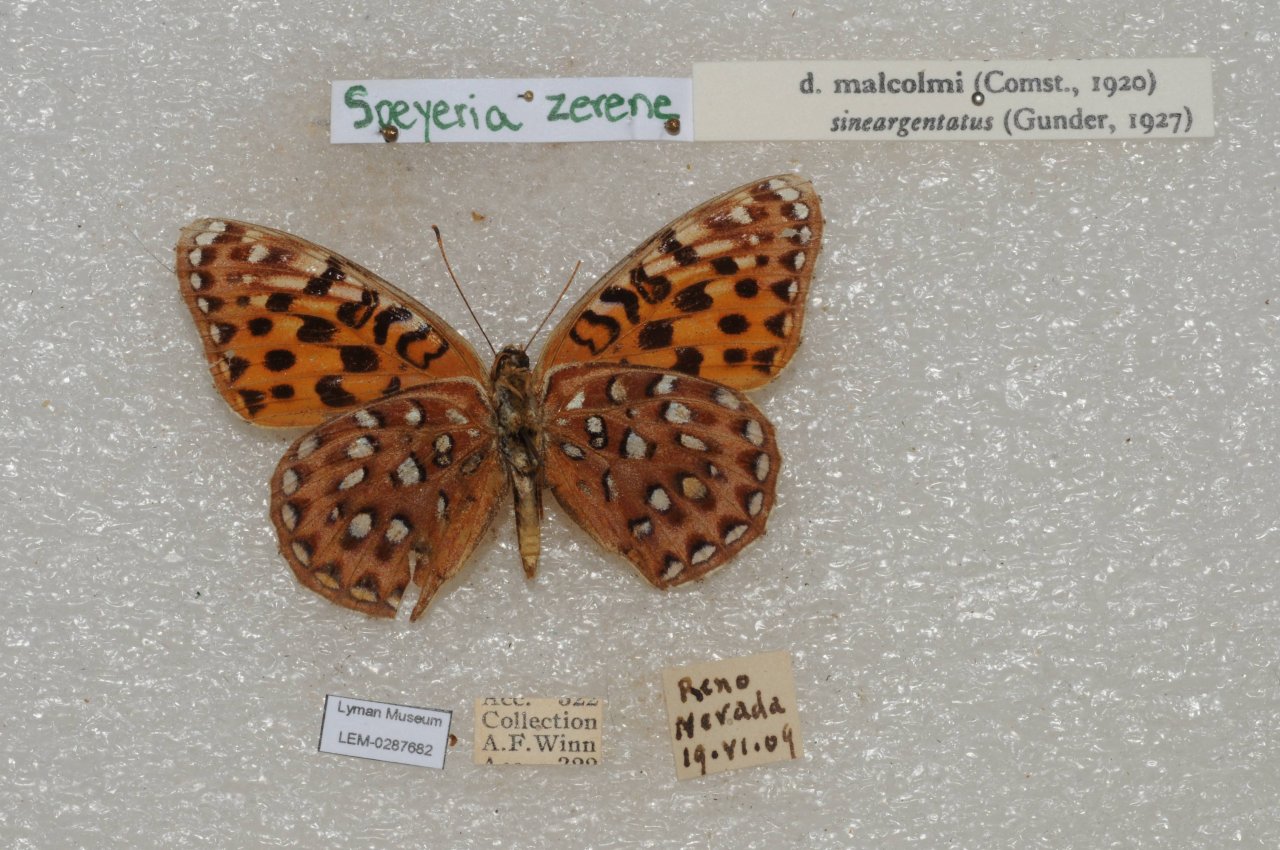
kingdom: Animalia
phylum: Arthropoda
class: Insecta
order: Lepidoptera
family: Nymphalidae
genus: Speyeria
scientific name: Speyeria zerene
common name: Zerene Fritillary
